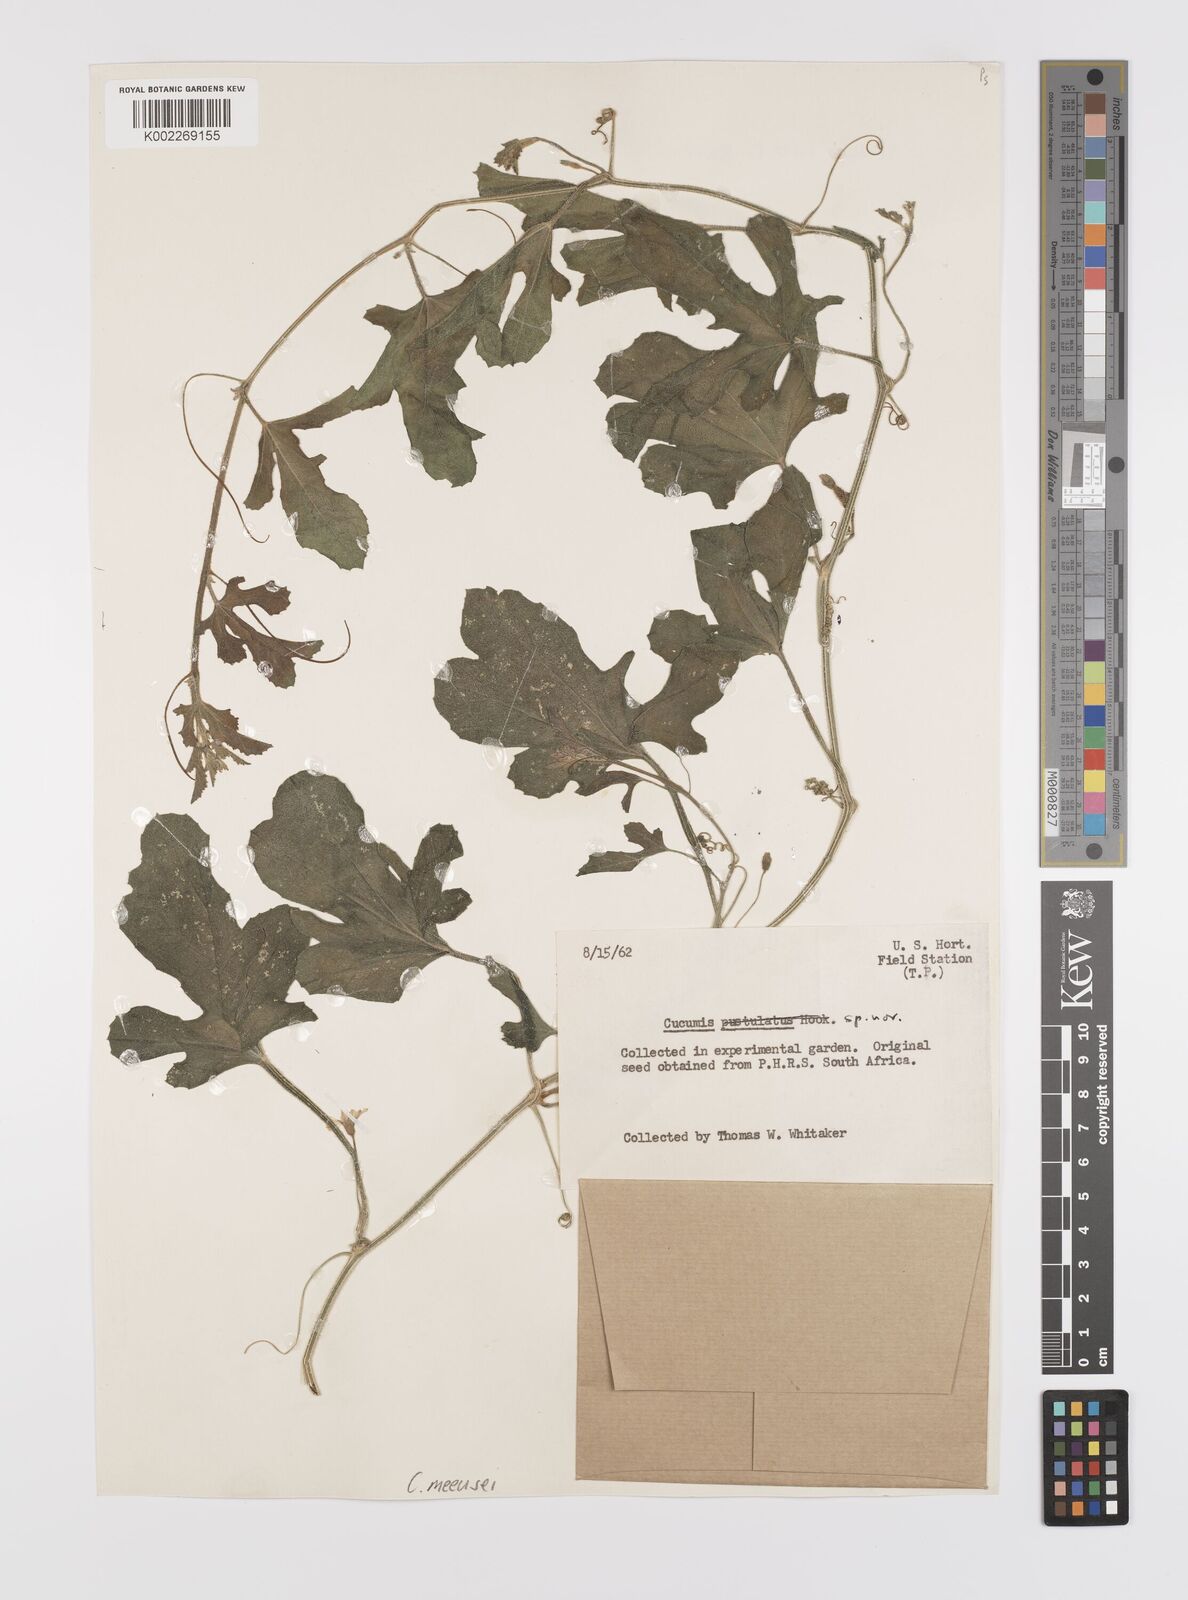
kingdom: Plantae
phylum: Tracheophyta
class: Magnoliopsida
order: Cucurbitales
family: Cucurbitaceae
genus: Cucumis
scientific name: Cucumis meeusei
